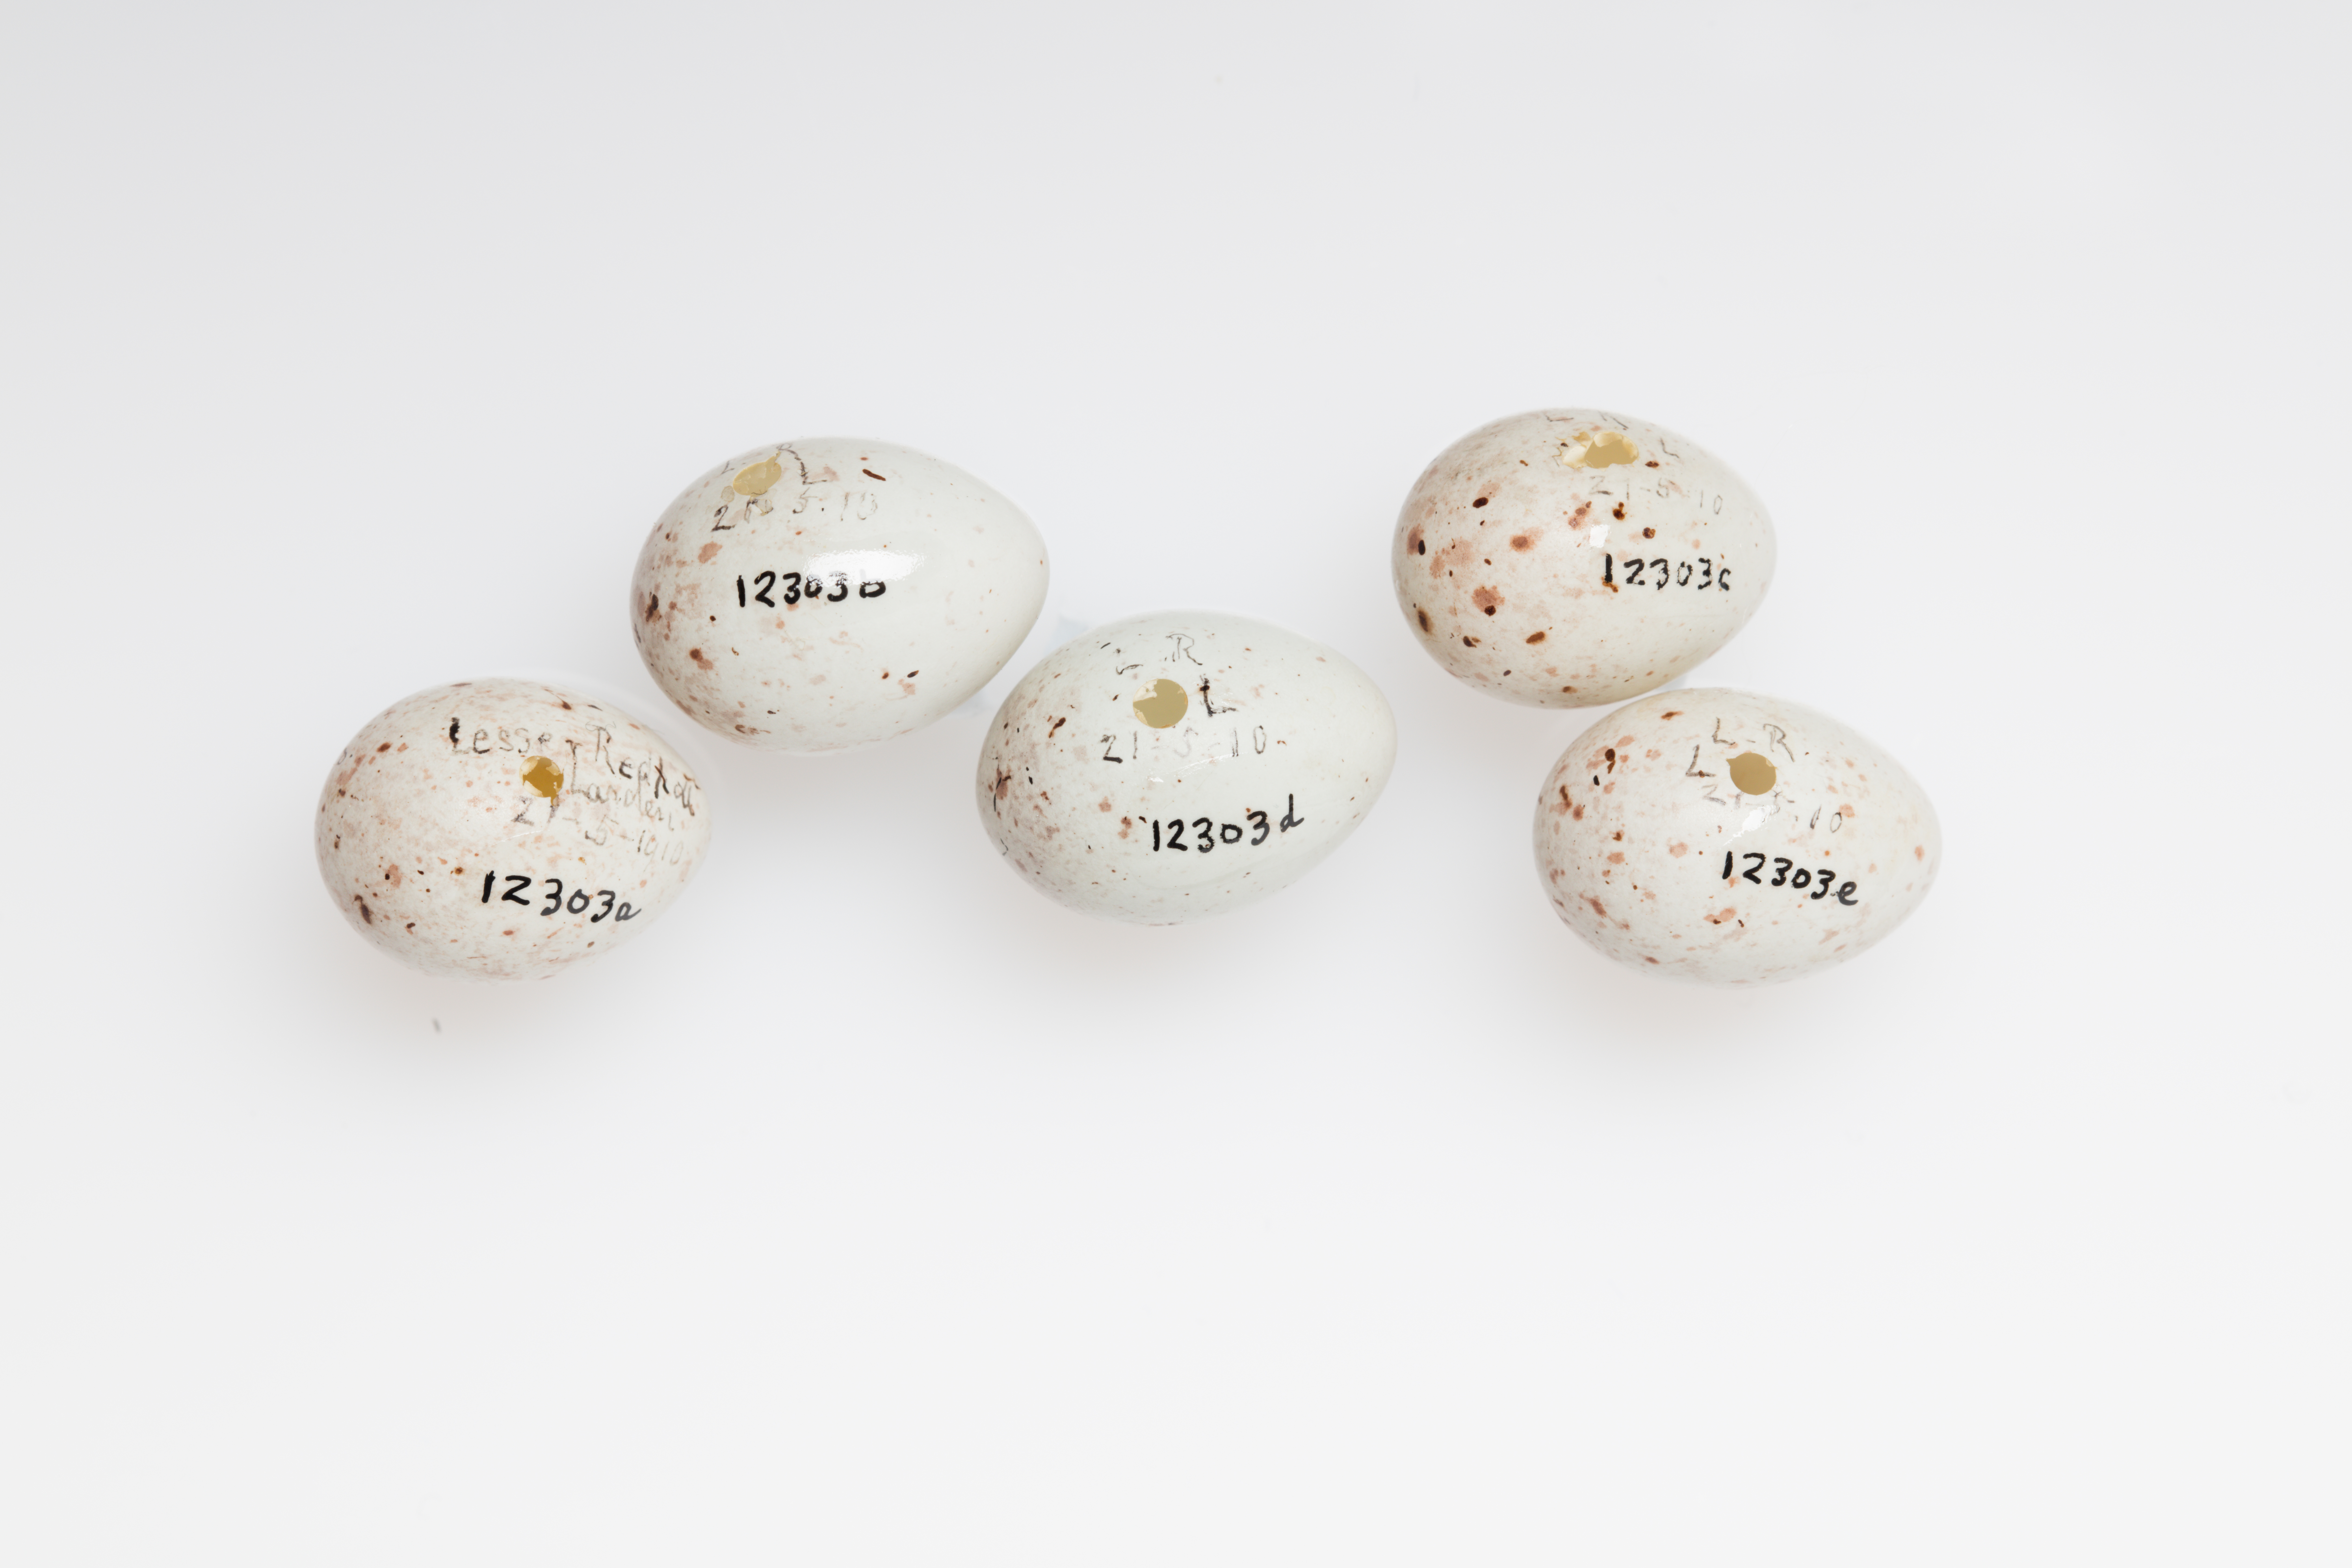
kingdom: Animalia
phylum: Chordata
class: Aves
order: Passeriformes
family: Fringillidae
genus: Acanthis
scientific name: Acanthis flammea
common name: Common redpoll
